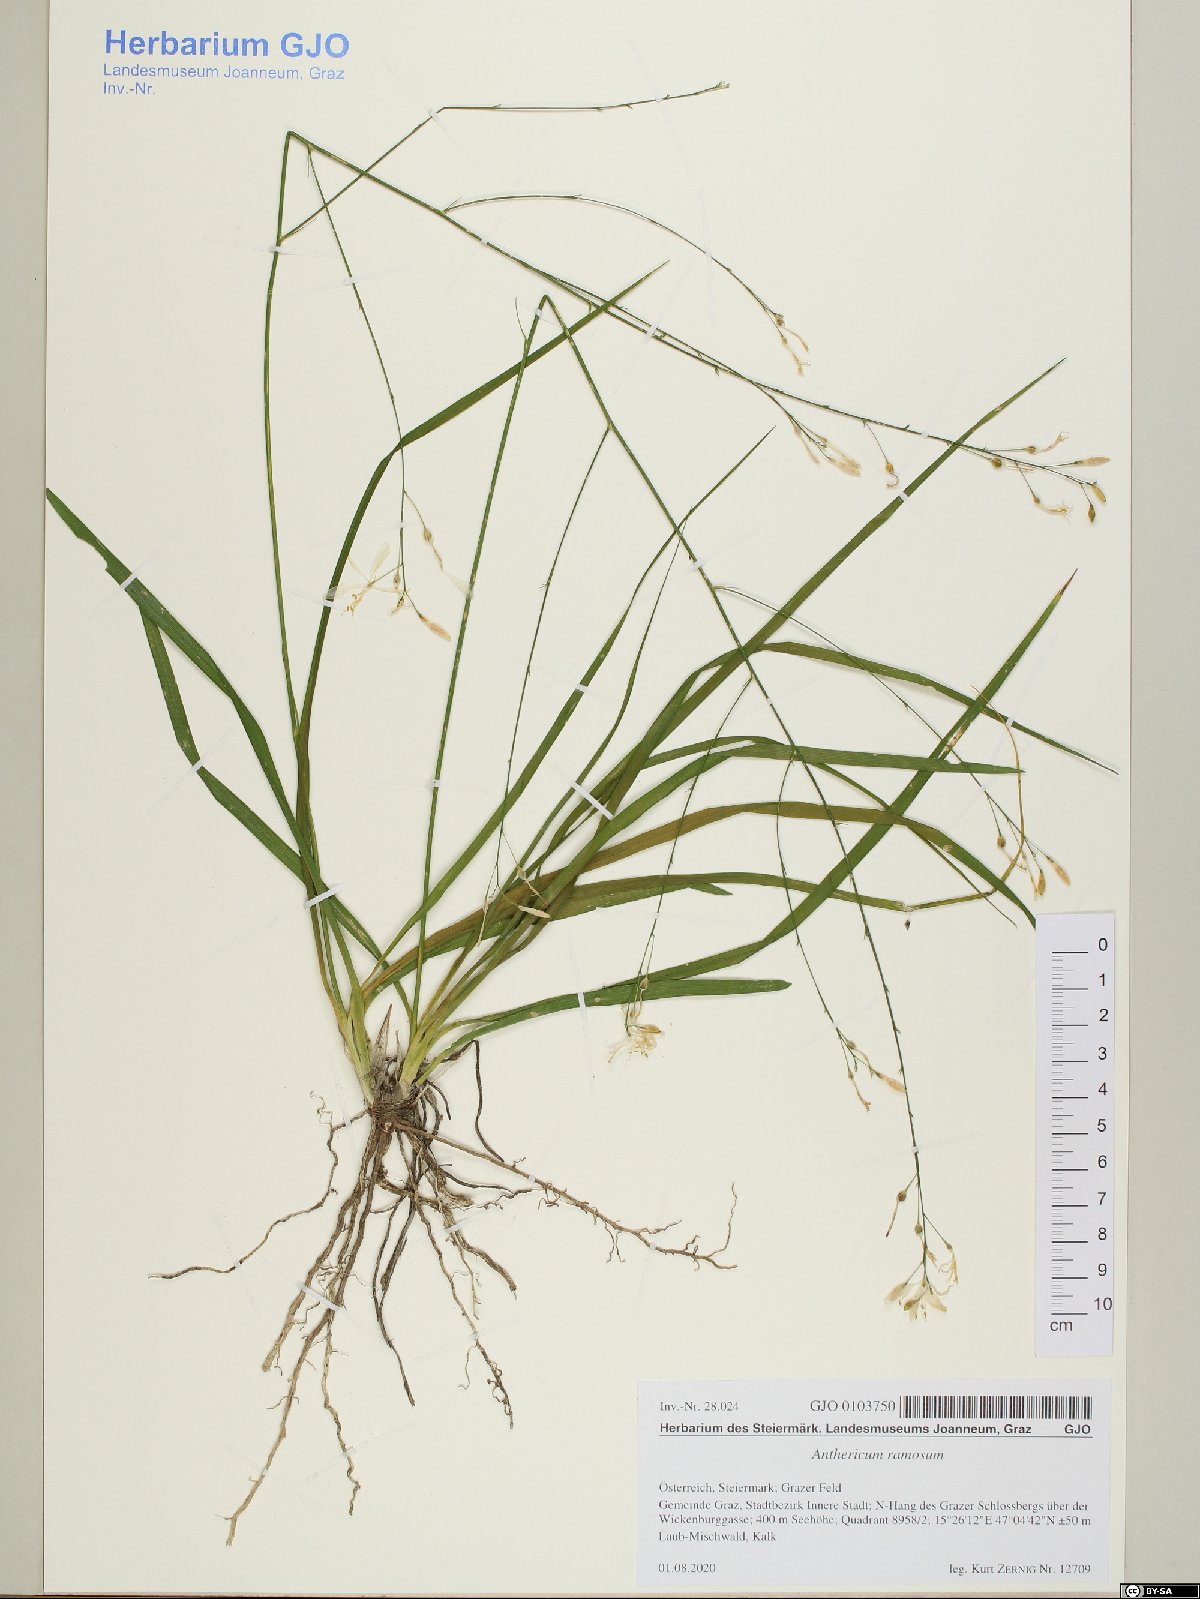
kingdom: Plantae
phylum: Tracheophyta
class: Liliopsida
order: Asparagales
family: Asparagaceae
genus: Anthericum
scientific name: Anthericum ramosum
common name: Branched st. bernard's-lily
